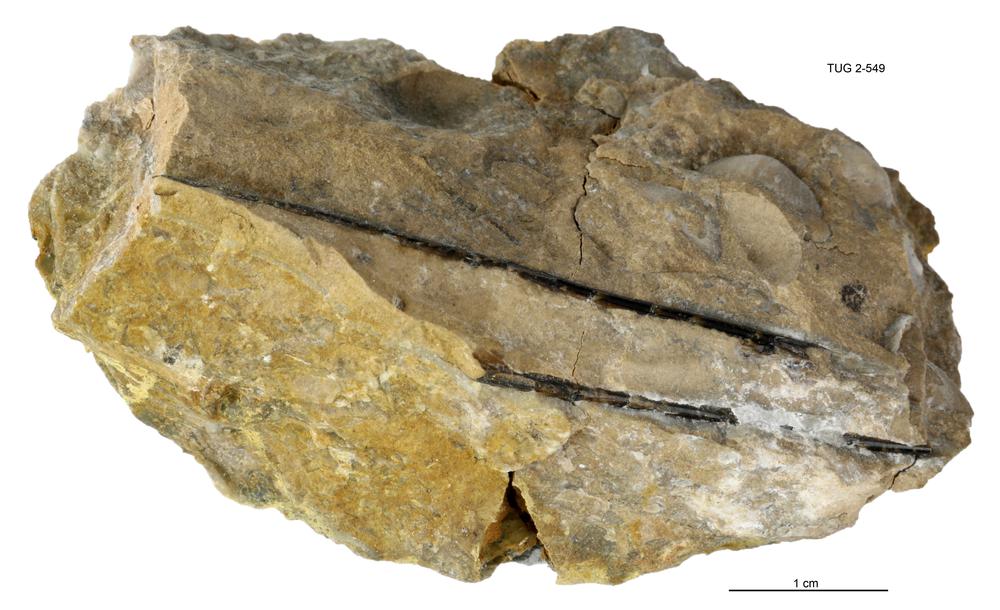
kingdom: Animalia
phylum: Cnidaria
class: Scyphozoa
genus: Sphenothallus
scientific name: Sphenothallus
